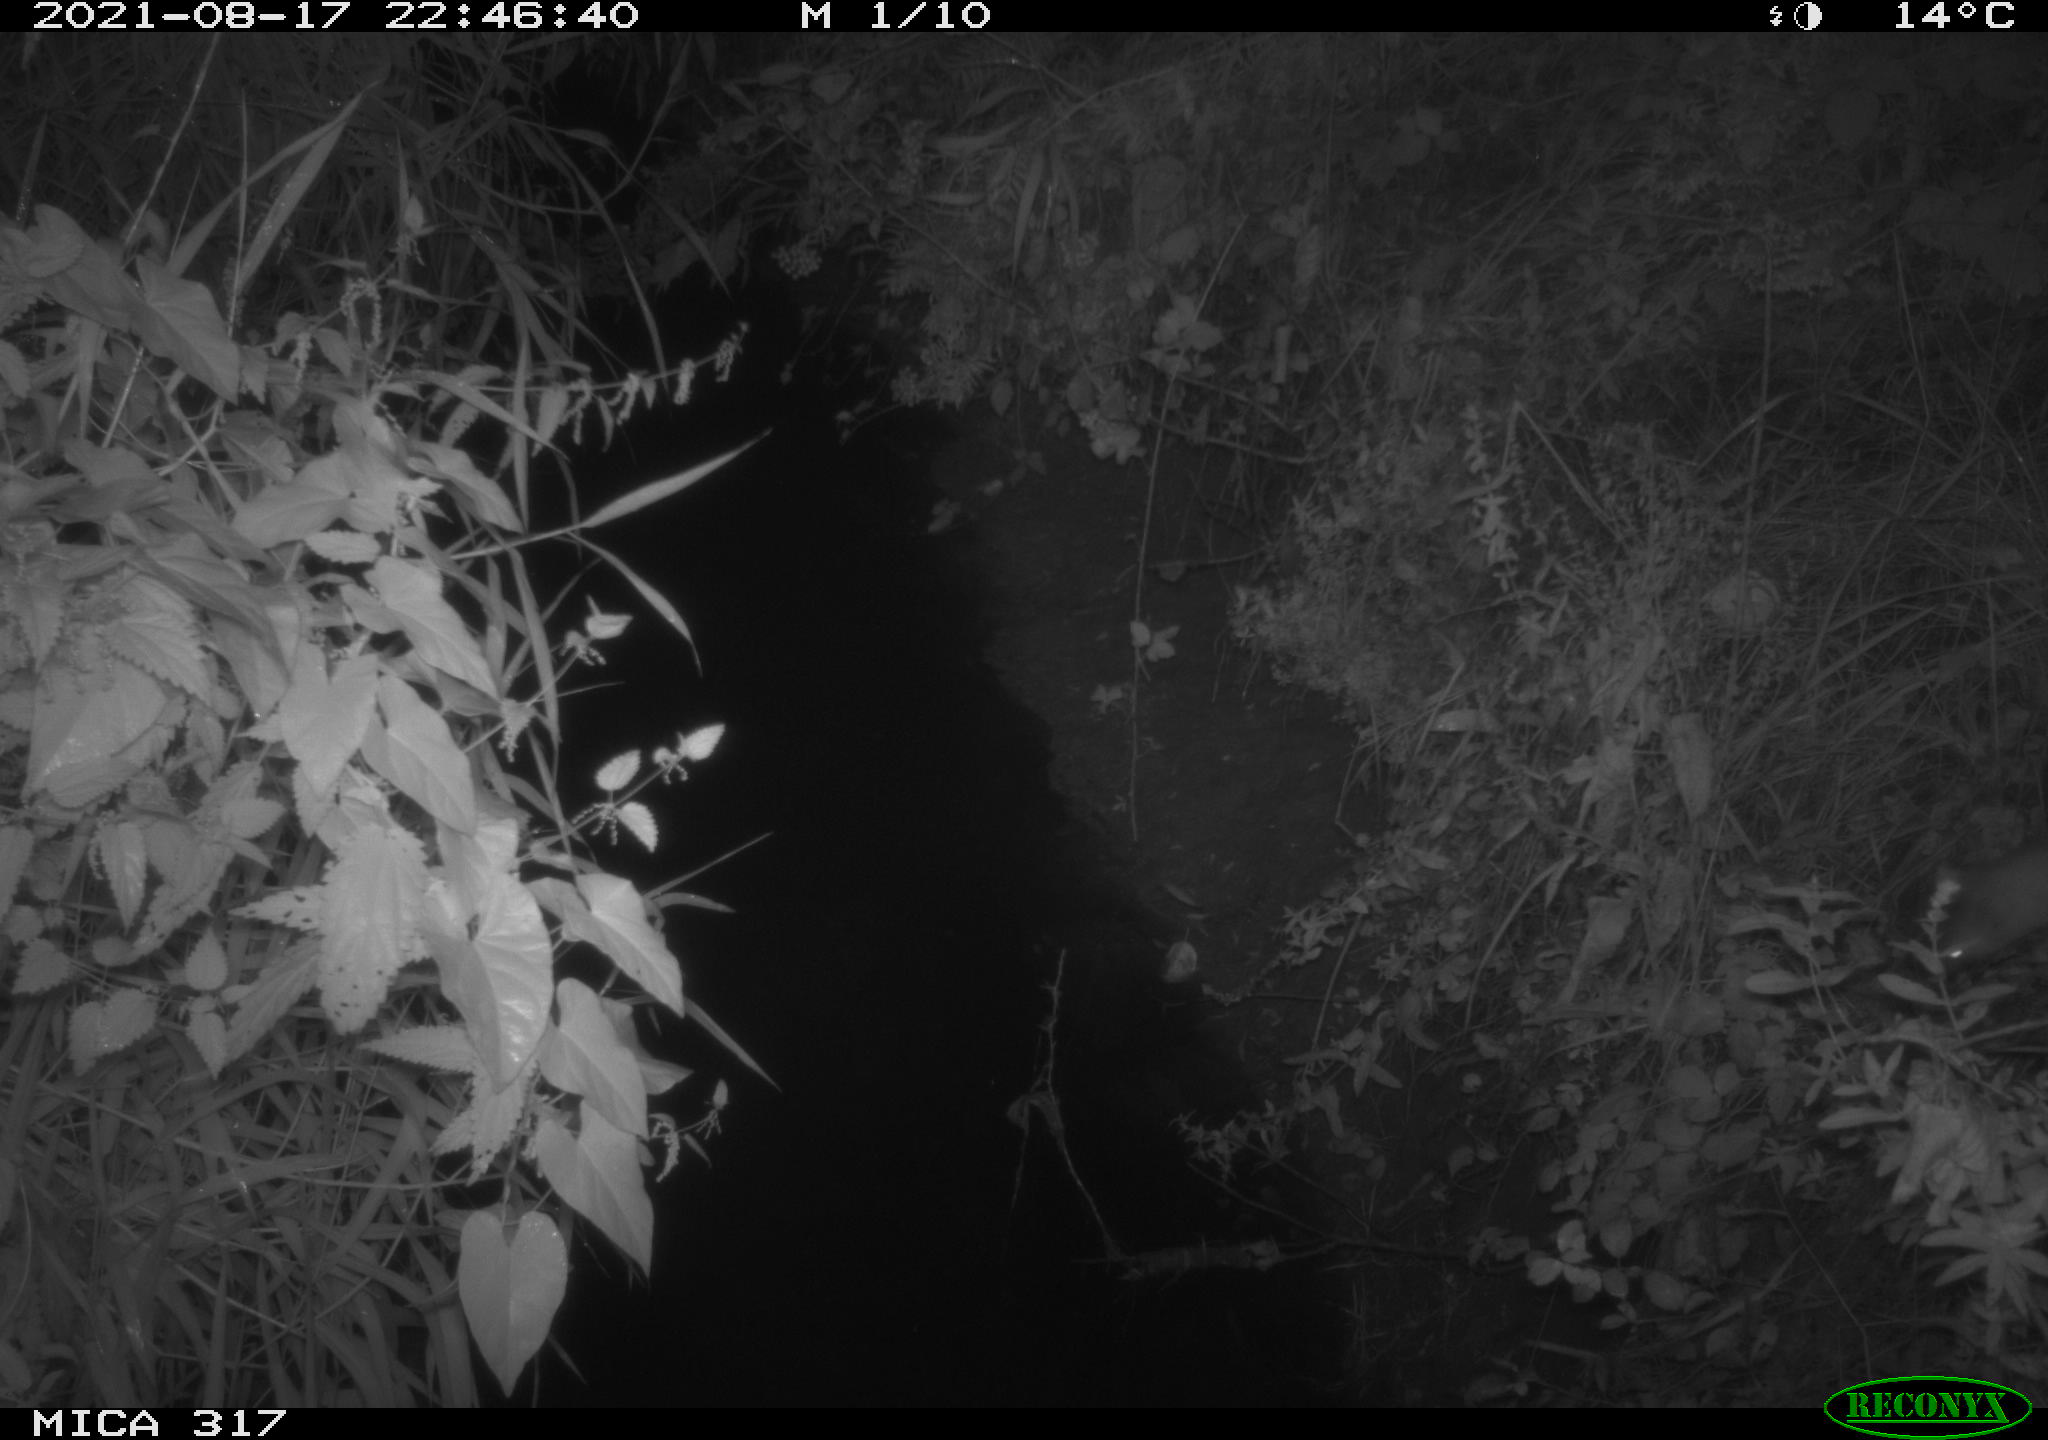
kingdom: Animalia
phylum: Chordata
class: Mammalia
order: Carnivora
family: Mustelidae
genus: Martes
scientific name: Martes foina
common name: Beech marten
